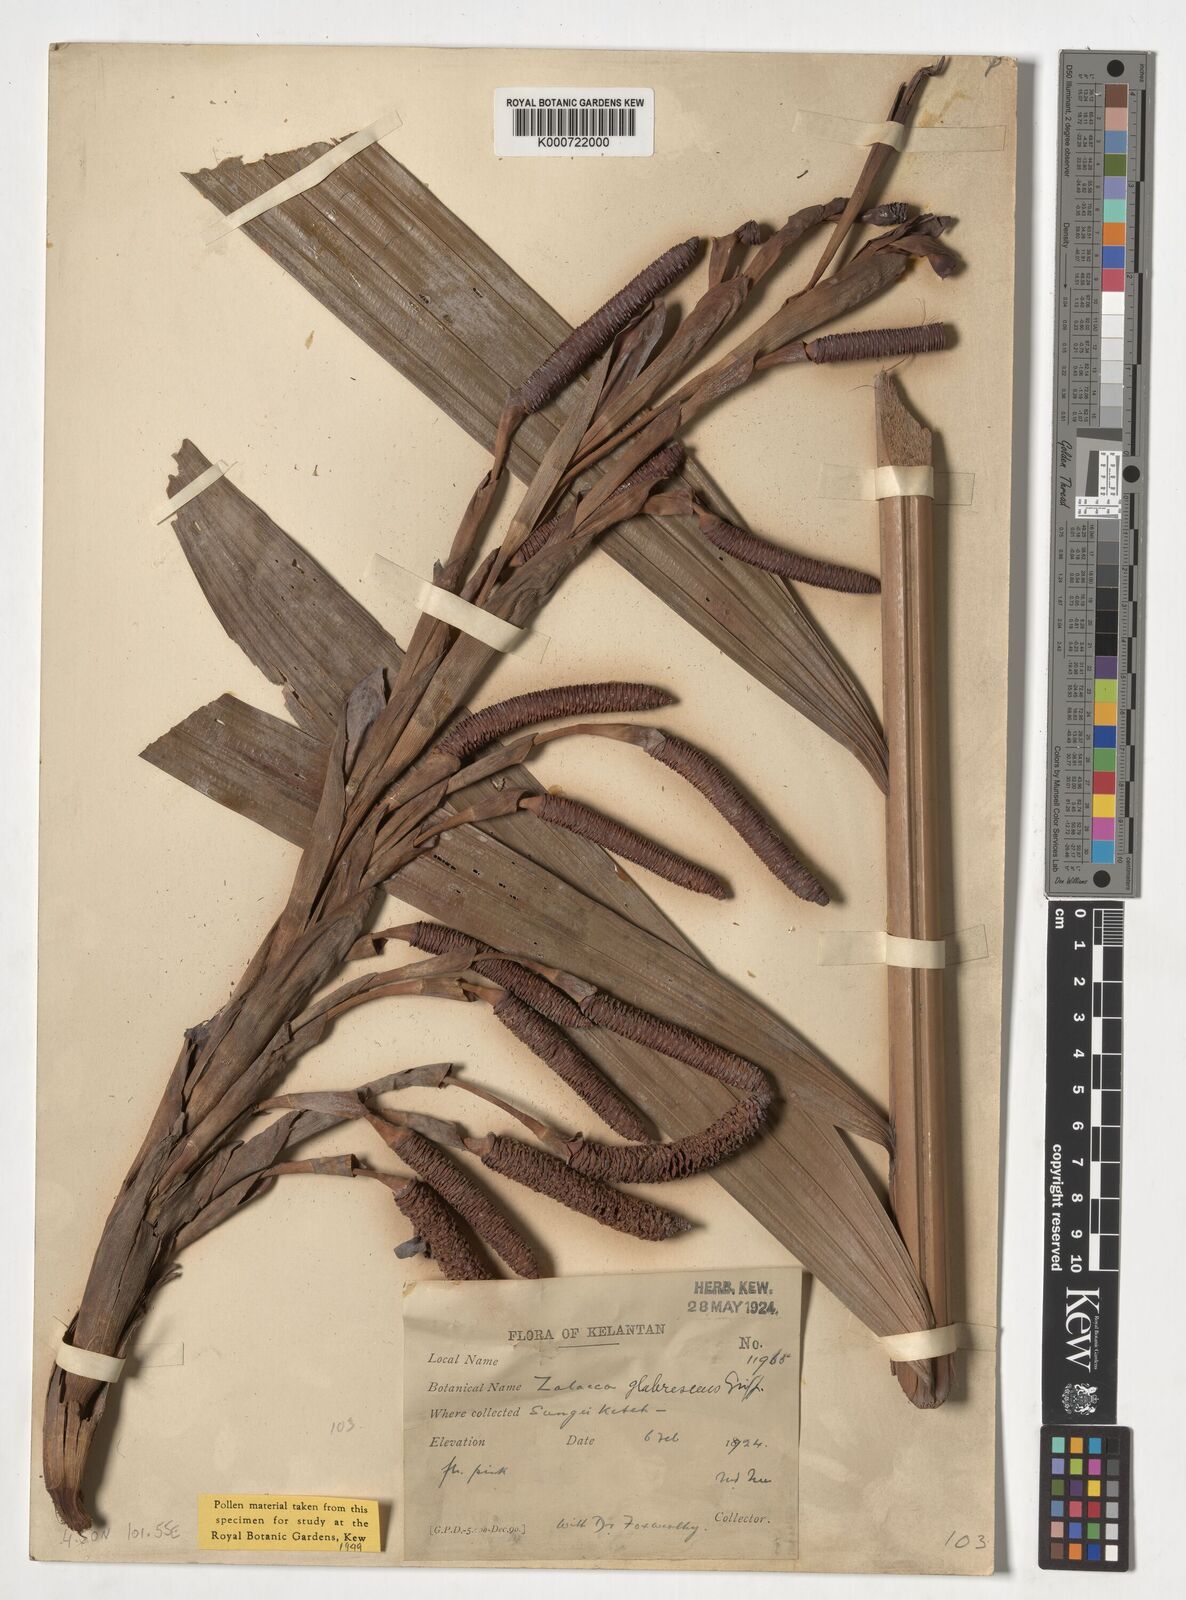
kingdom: Plantae
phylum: Tracheophyta
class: Liliopsida
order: Arecales
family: Arecaceae
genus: Salacca
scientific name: Salacca glabrescens
